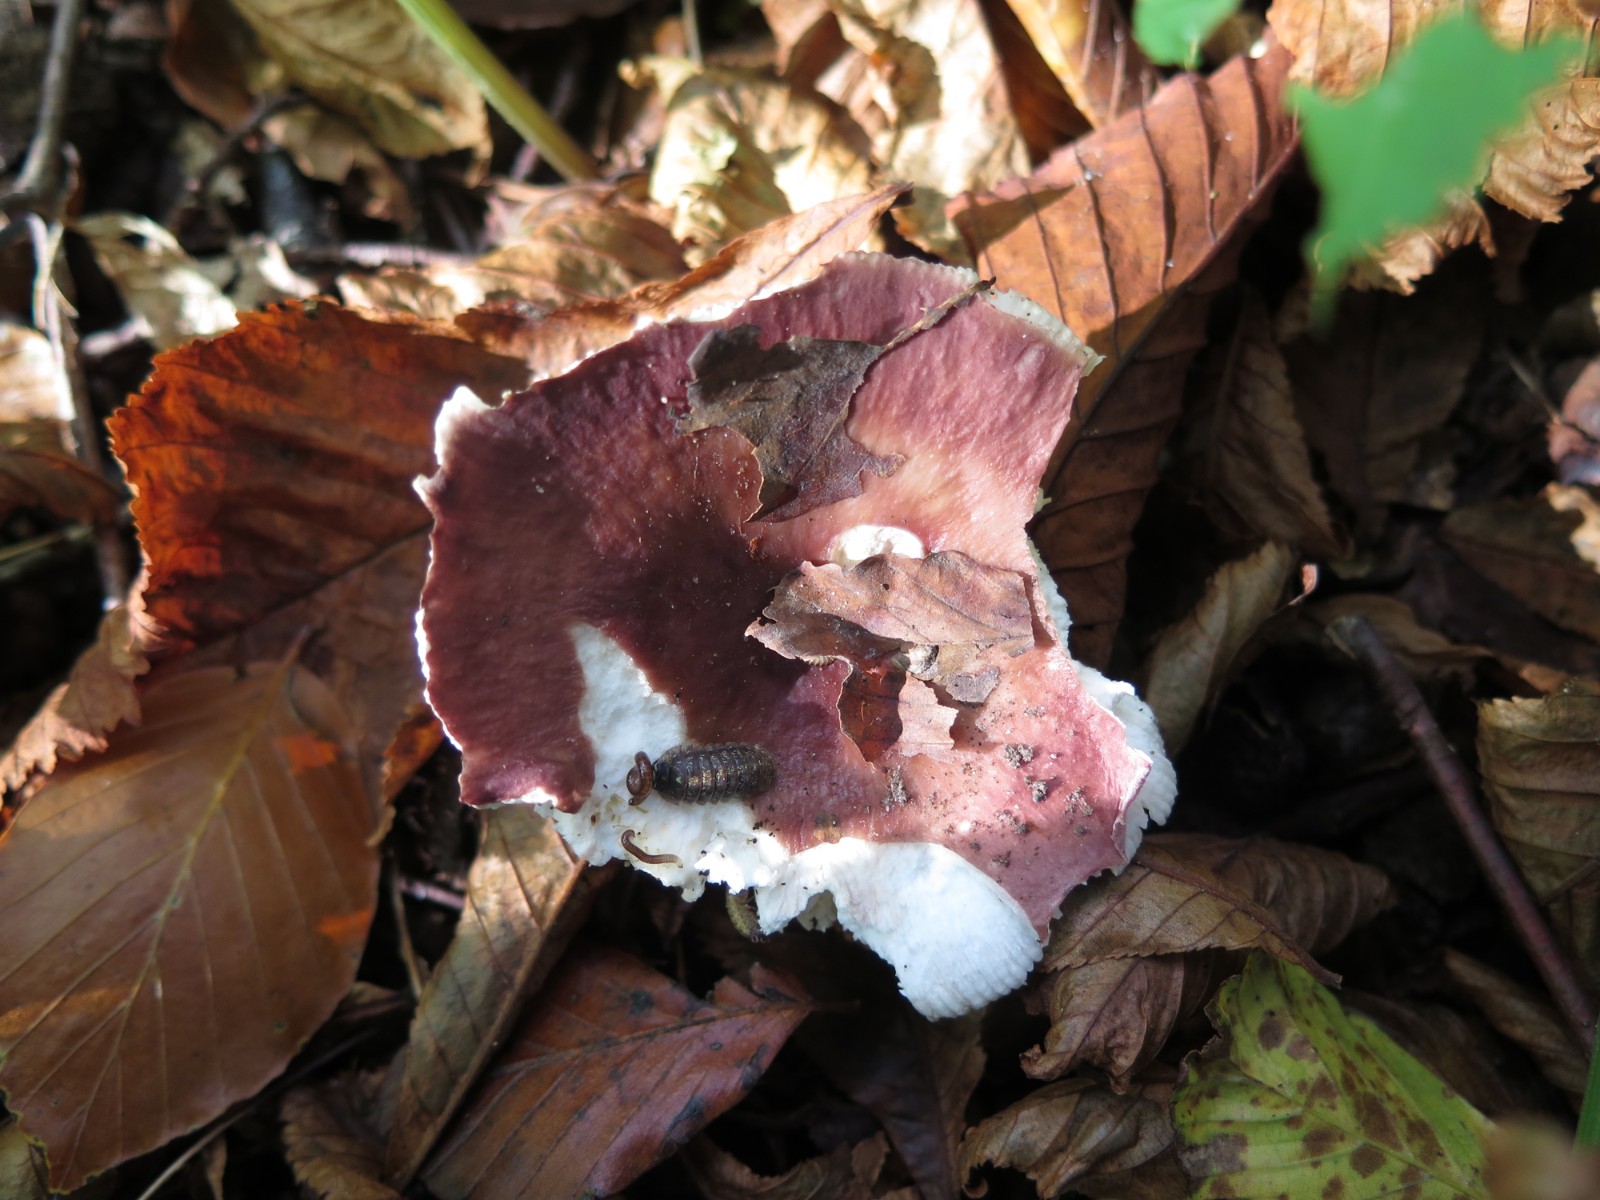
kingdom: Fungi
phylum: Basidiomycota
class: Agaricomycetes
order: Russulales
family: Russulaceae
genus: Russula
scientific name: Russula vesca
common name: spiselig skørhat
